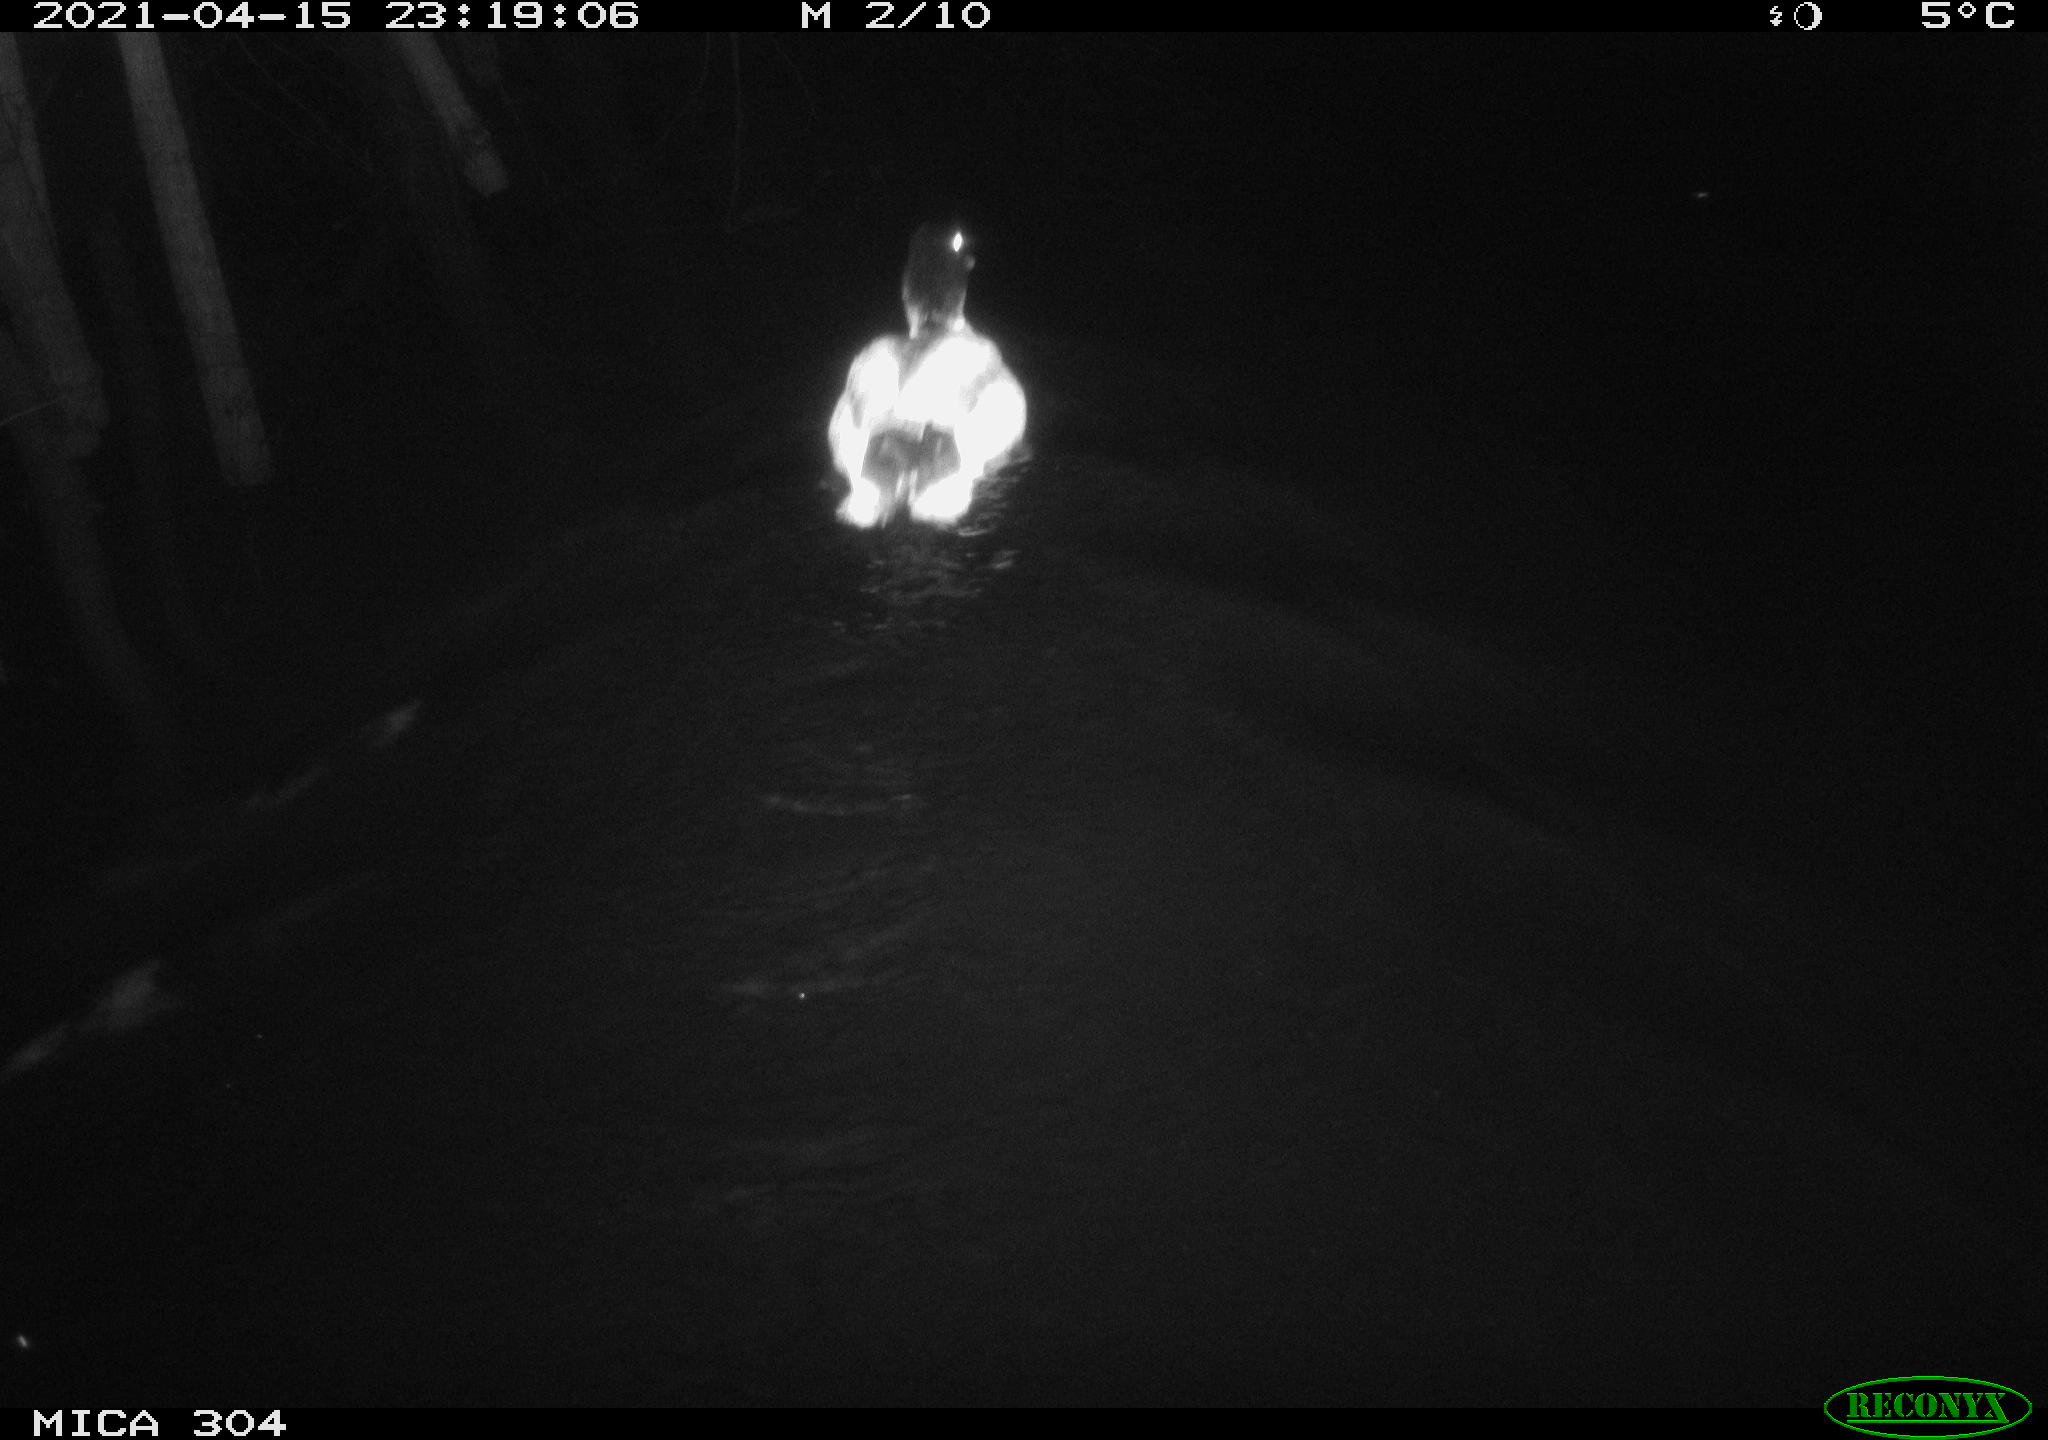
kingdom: Animalia
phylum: Chordata
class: Aves
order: Anseriformes
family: Anatidae
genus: Anas
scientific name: Anas
